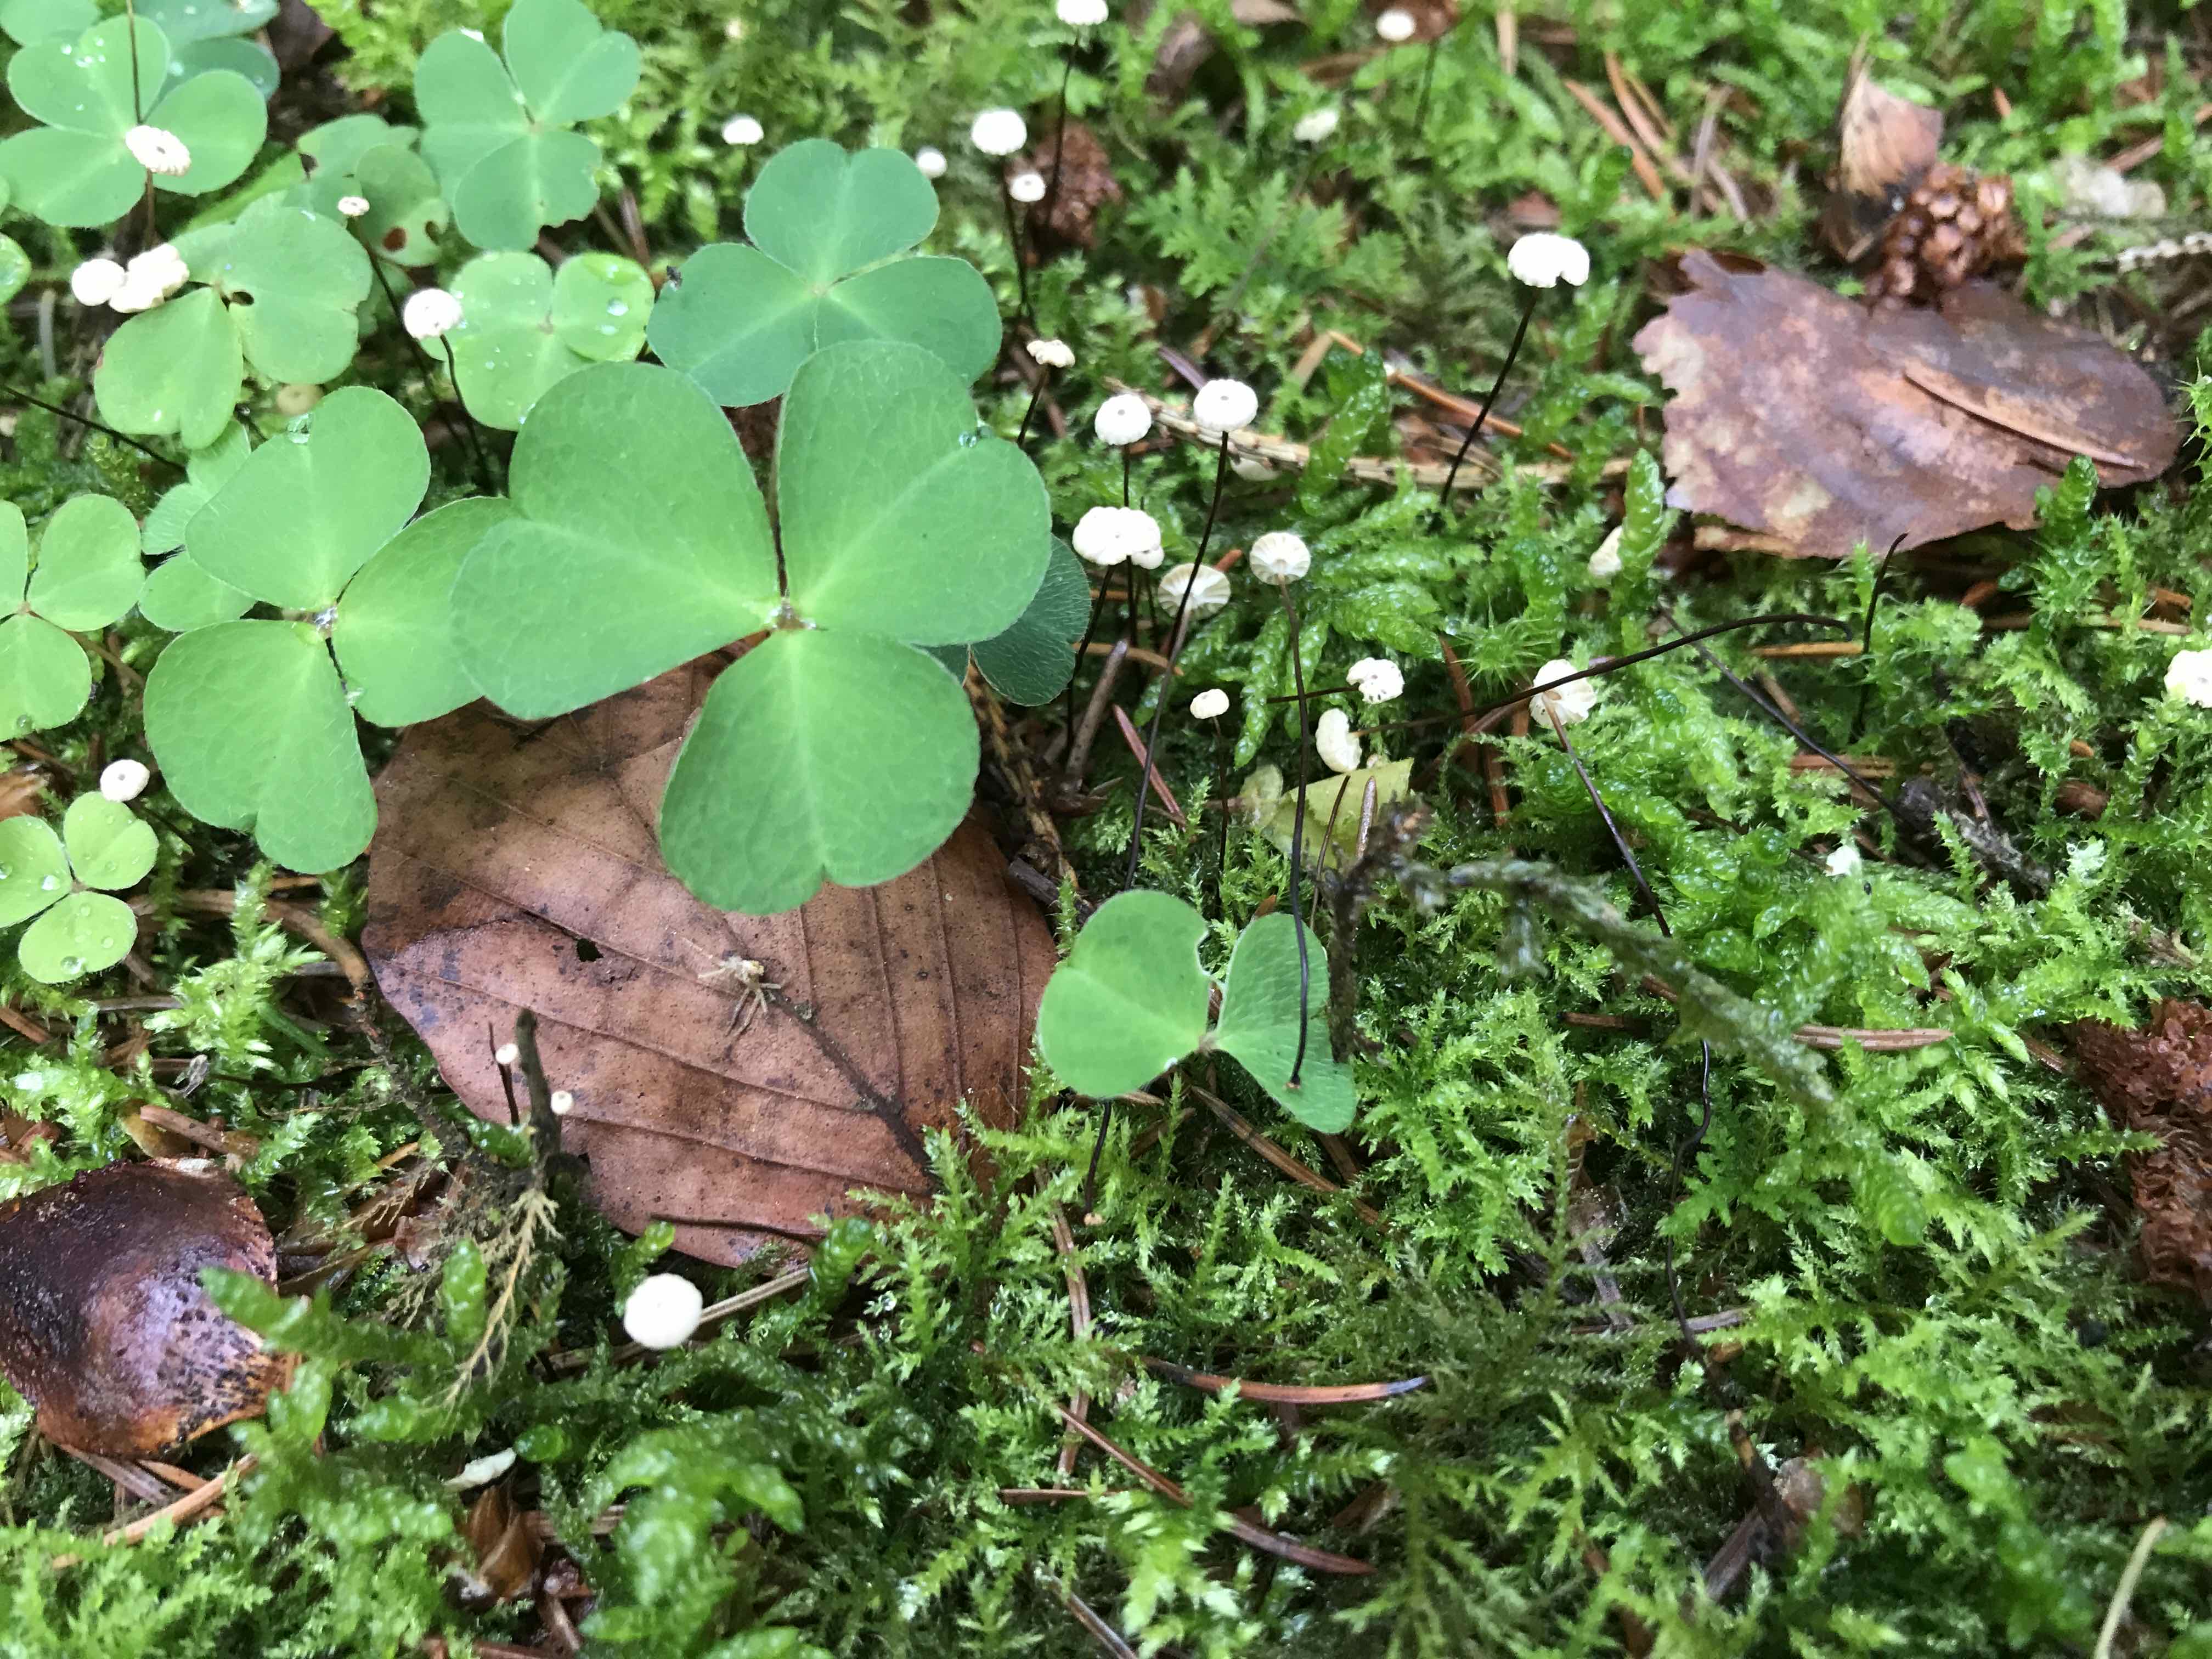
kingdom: Fungi
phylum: Basidiomycota
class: Agaricomycetes
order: Agaricales
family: Marasmiaceae
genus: Marasmius
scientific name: Marasmius wettsteinii
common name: Wettsteins bruskhat
